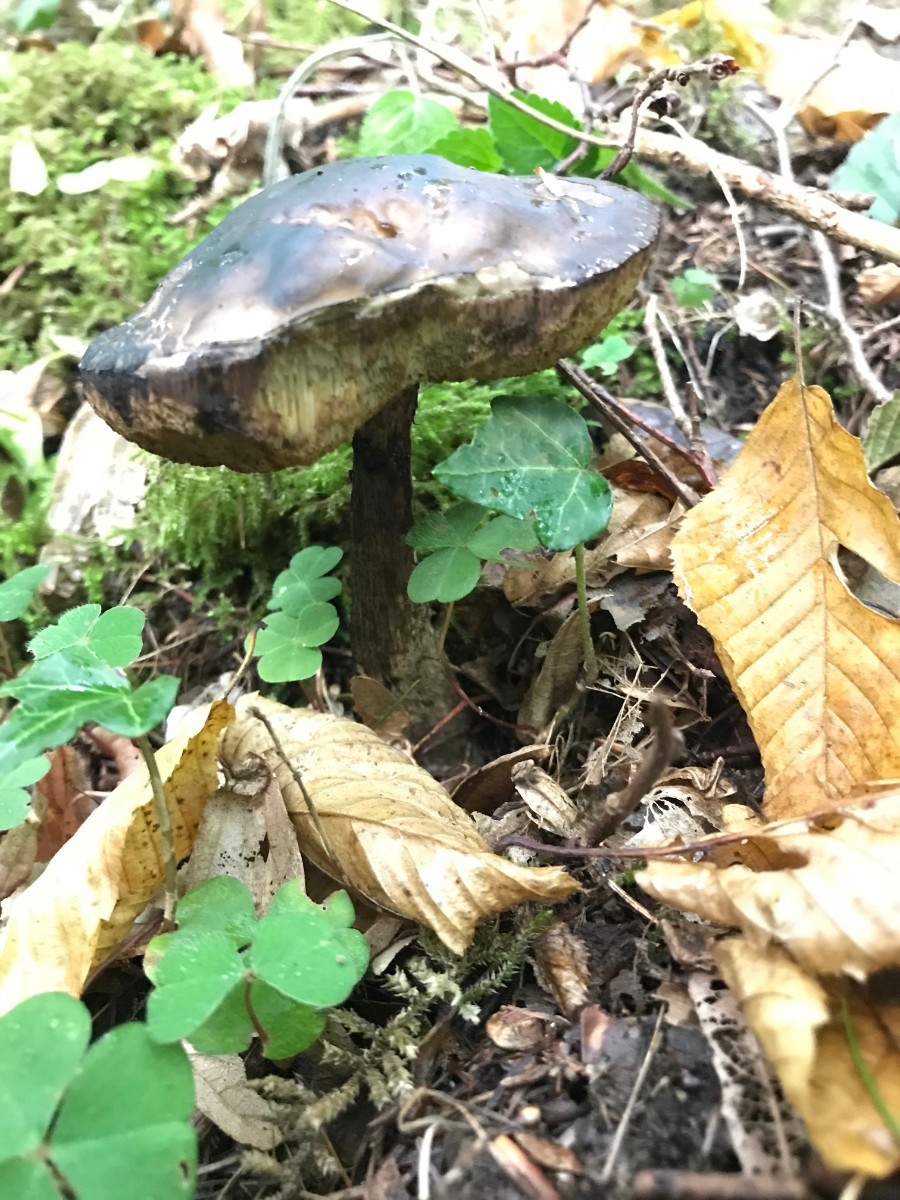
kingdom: Fungi
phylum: Basidiomycota
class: Agaricomycetes
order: Boletales
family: Boletaceae
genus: Leccinellum
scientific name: Leccinellum pseudoscabrum
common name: avnbøg-skælrørhat
